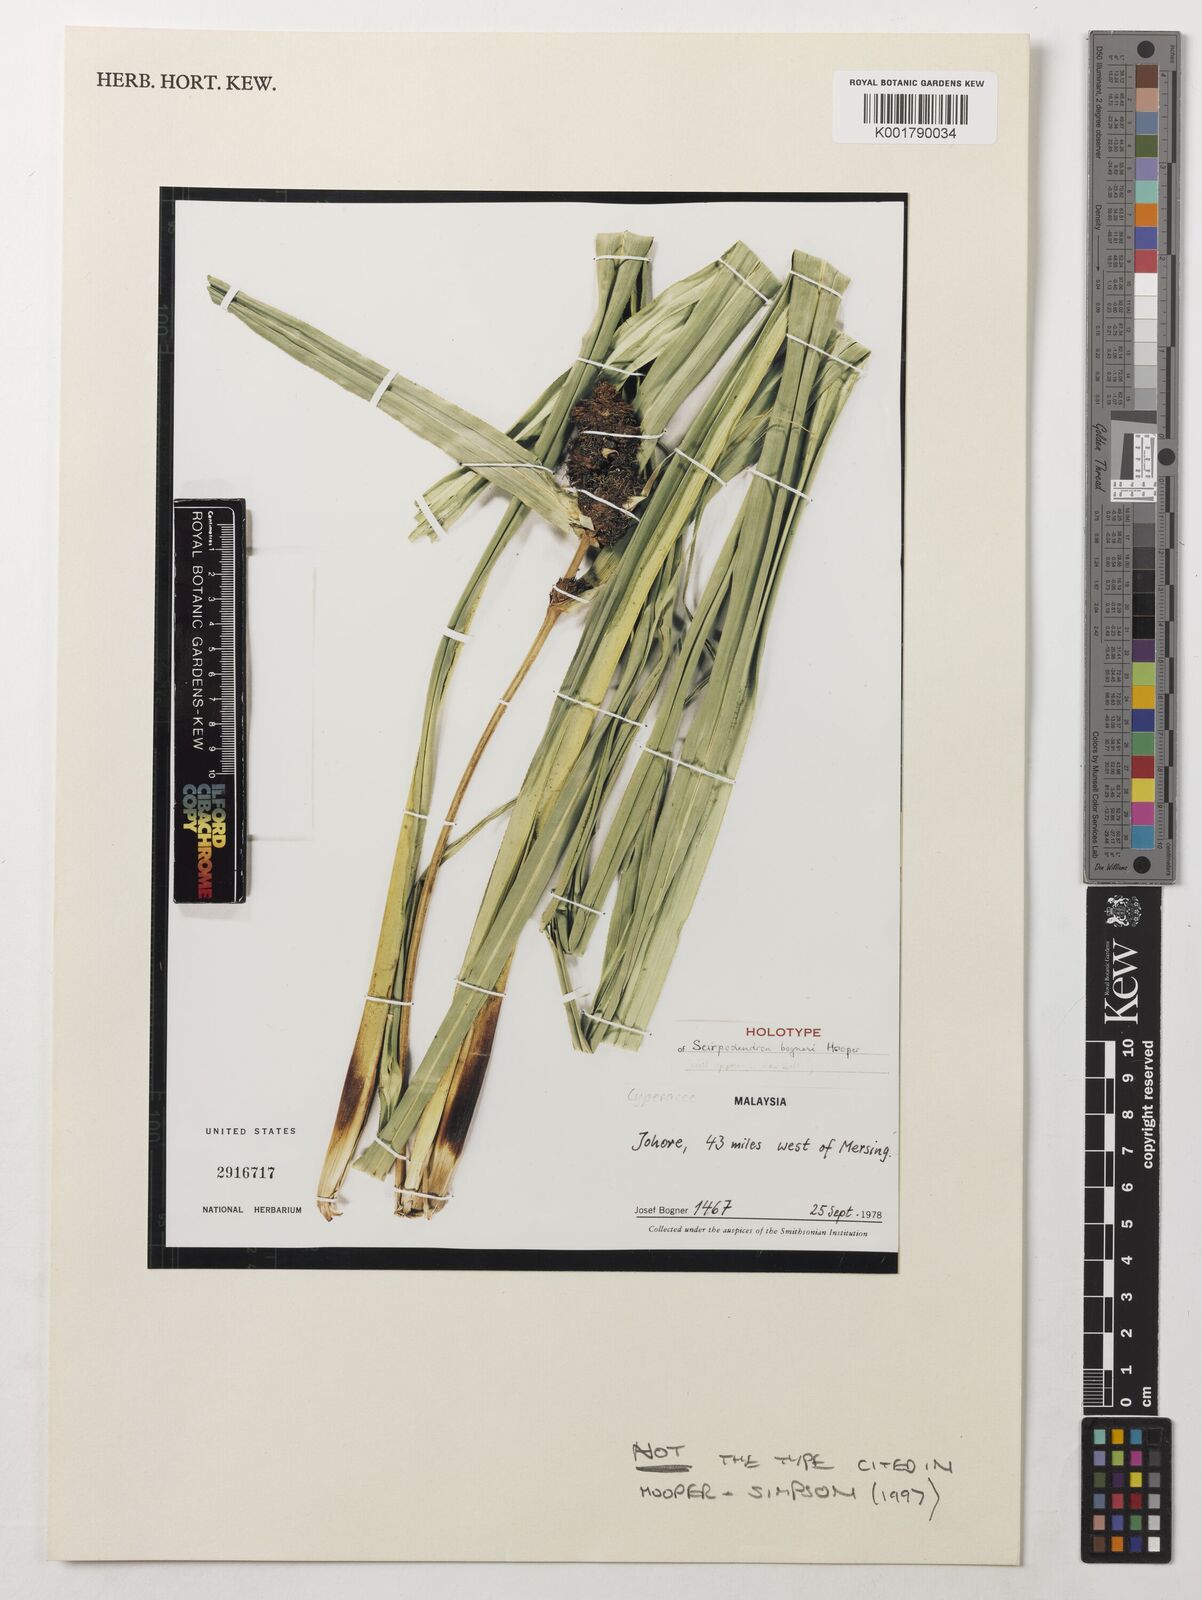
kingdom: Plantae
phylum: Tracheophyta
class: Liliopsida
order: Poales
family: Cyperaceae
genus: Scirpodendron
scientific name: Scirpodendron bogneri
